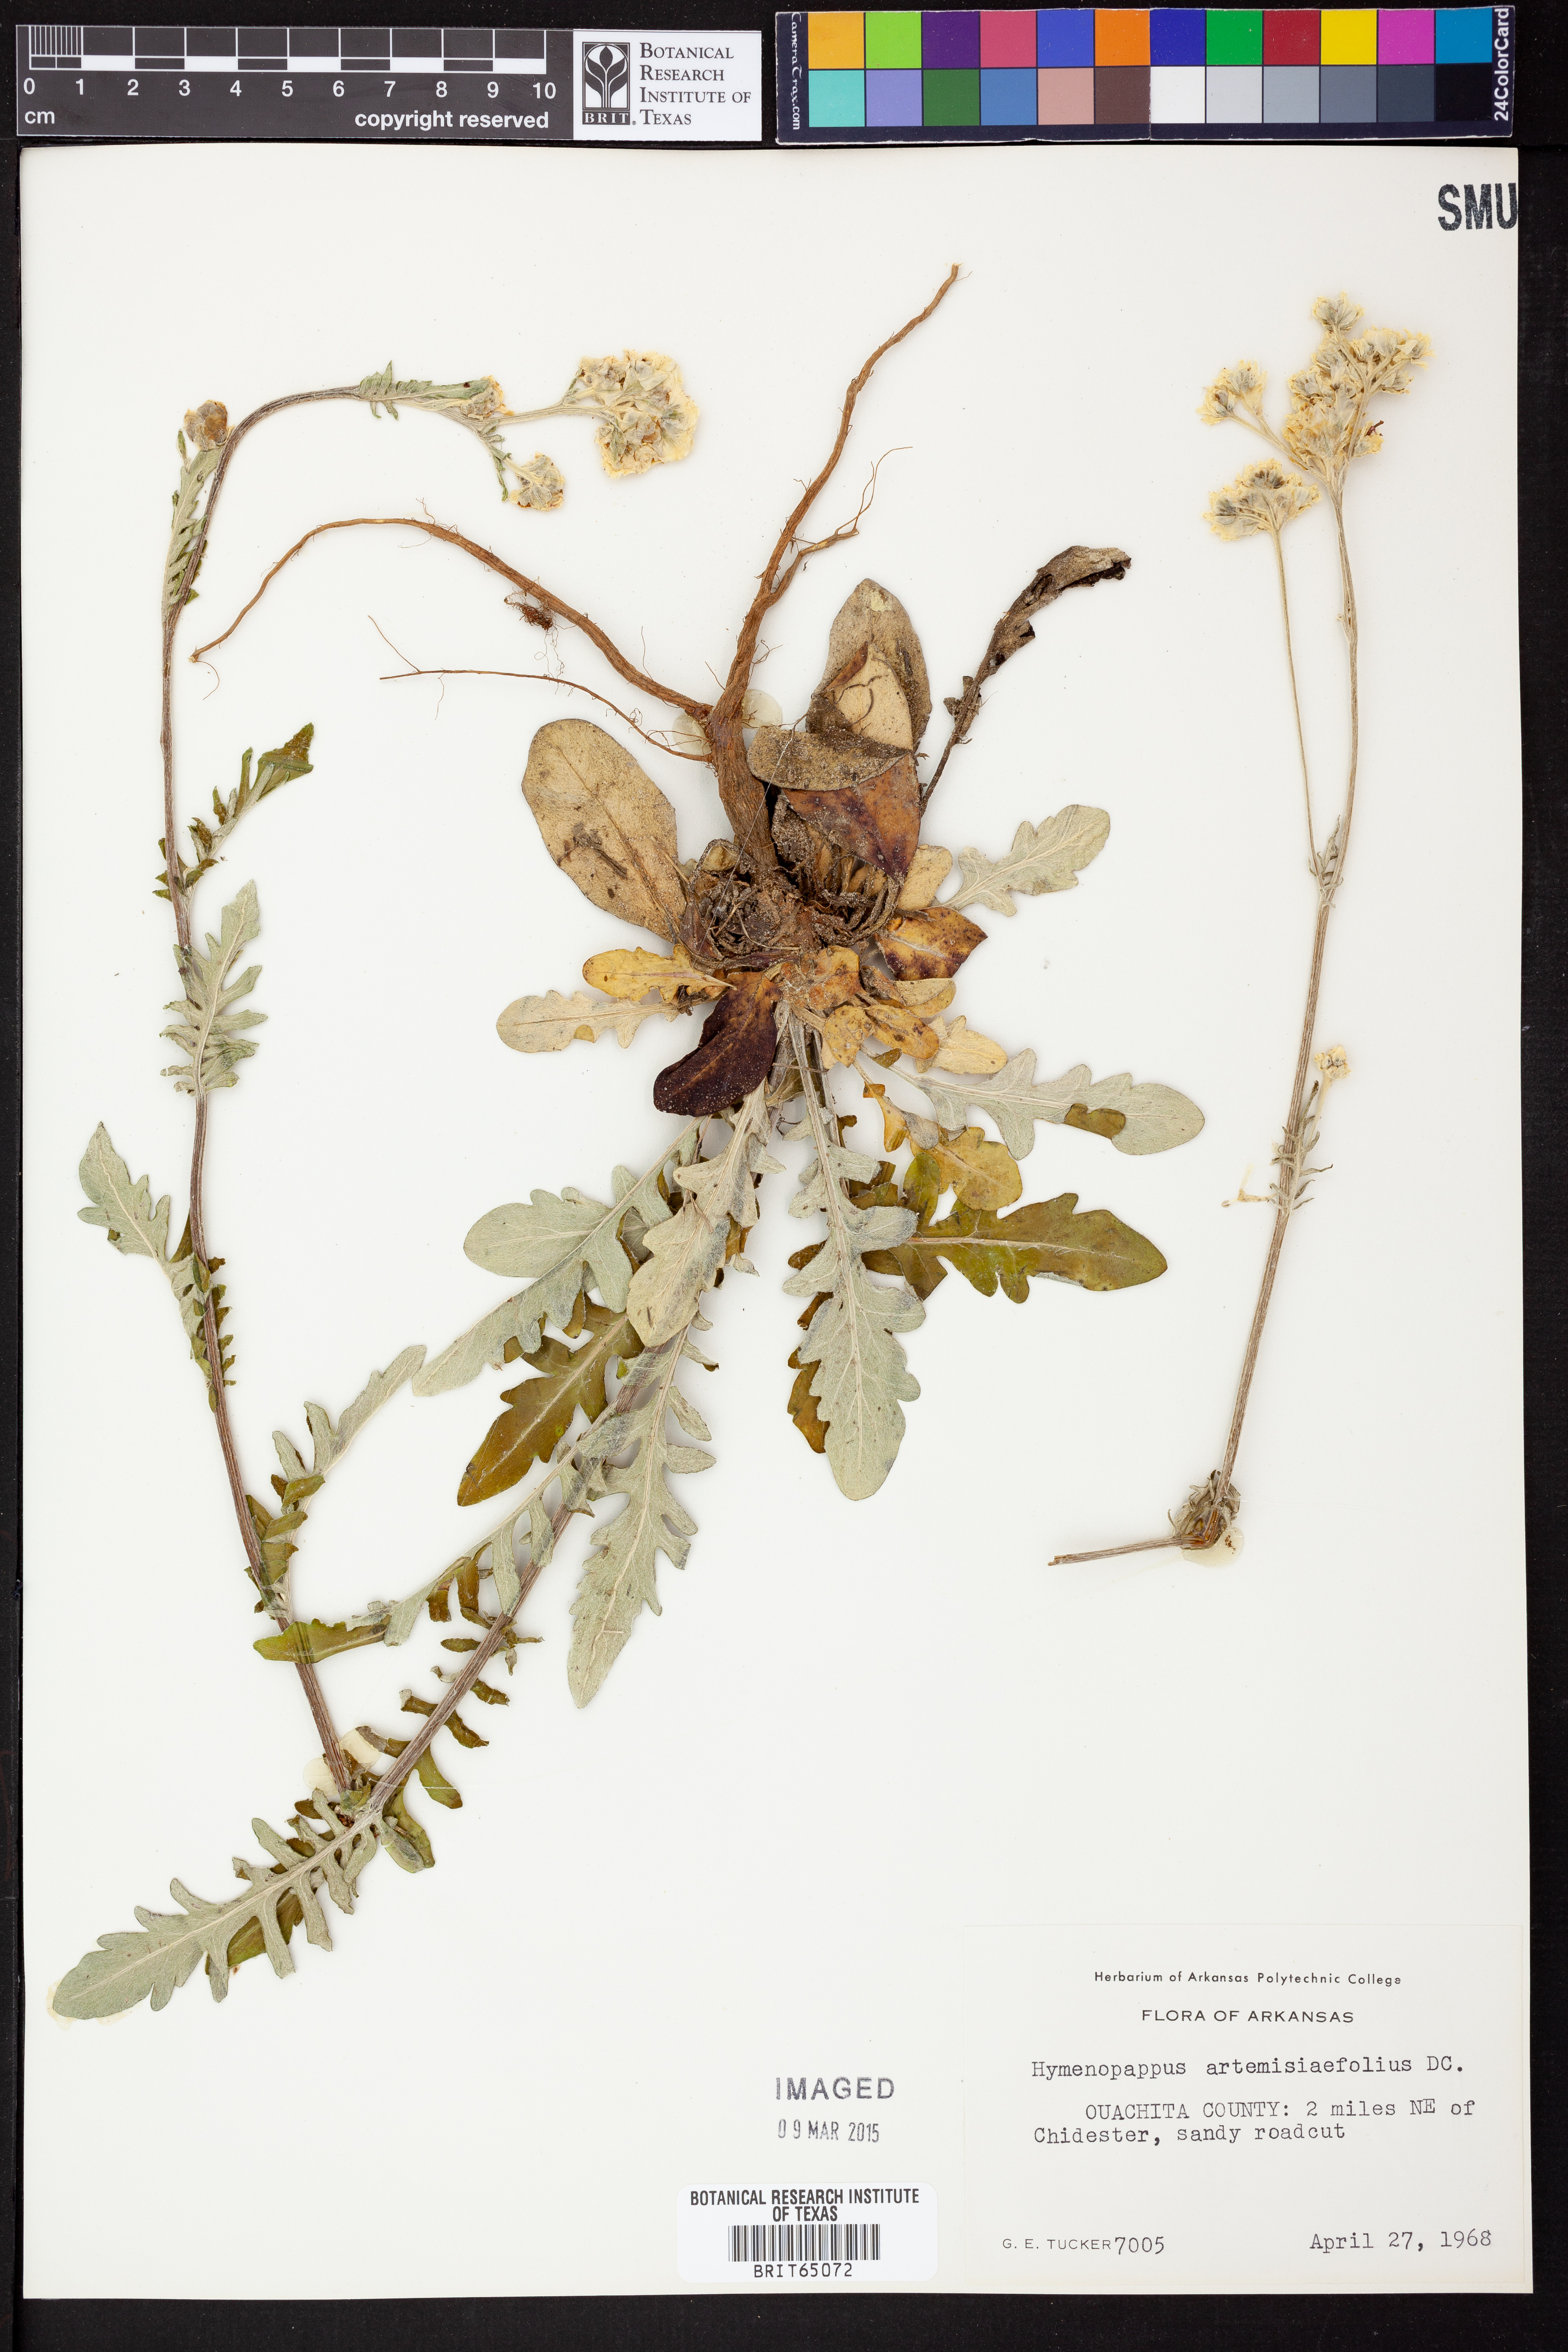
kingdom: Plantae
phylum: Tracheophyta
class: Magnoliopsida
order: Asterales
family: Asteraceae
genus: Hymenopappus
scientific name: Hymenopappus artemisiifolius
